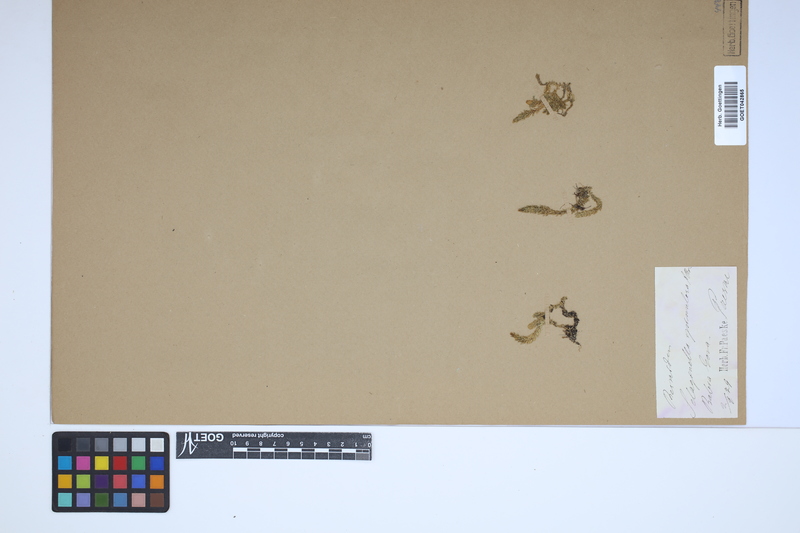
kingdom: Plantae
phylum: Tracheophyta
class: Lycopodiopsida
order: Selaginellales
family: Selaginellaceae
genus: Selaginella
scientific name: Selaginella selaginoides
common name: Prickly mountain-moss
